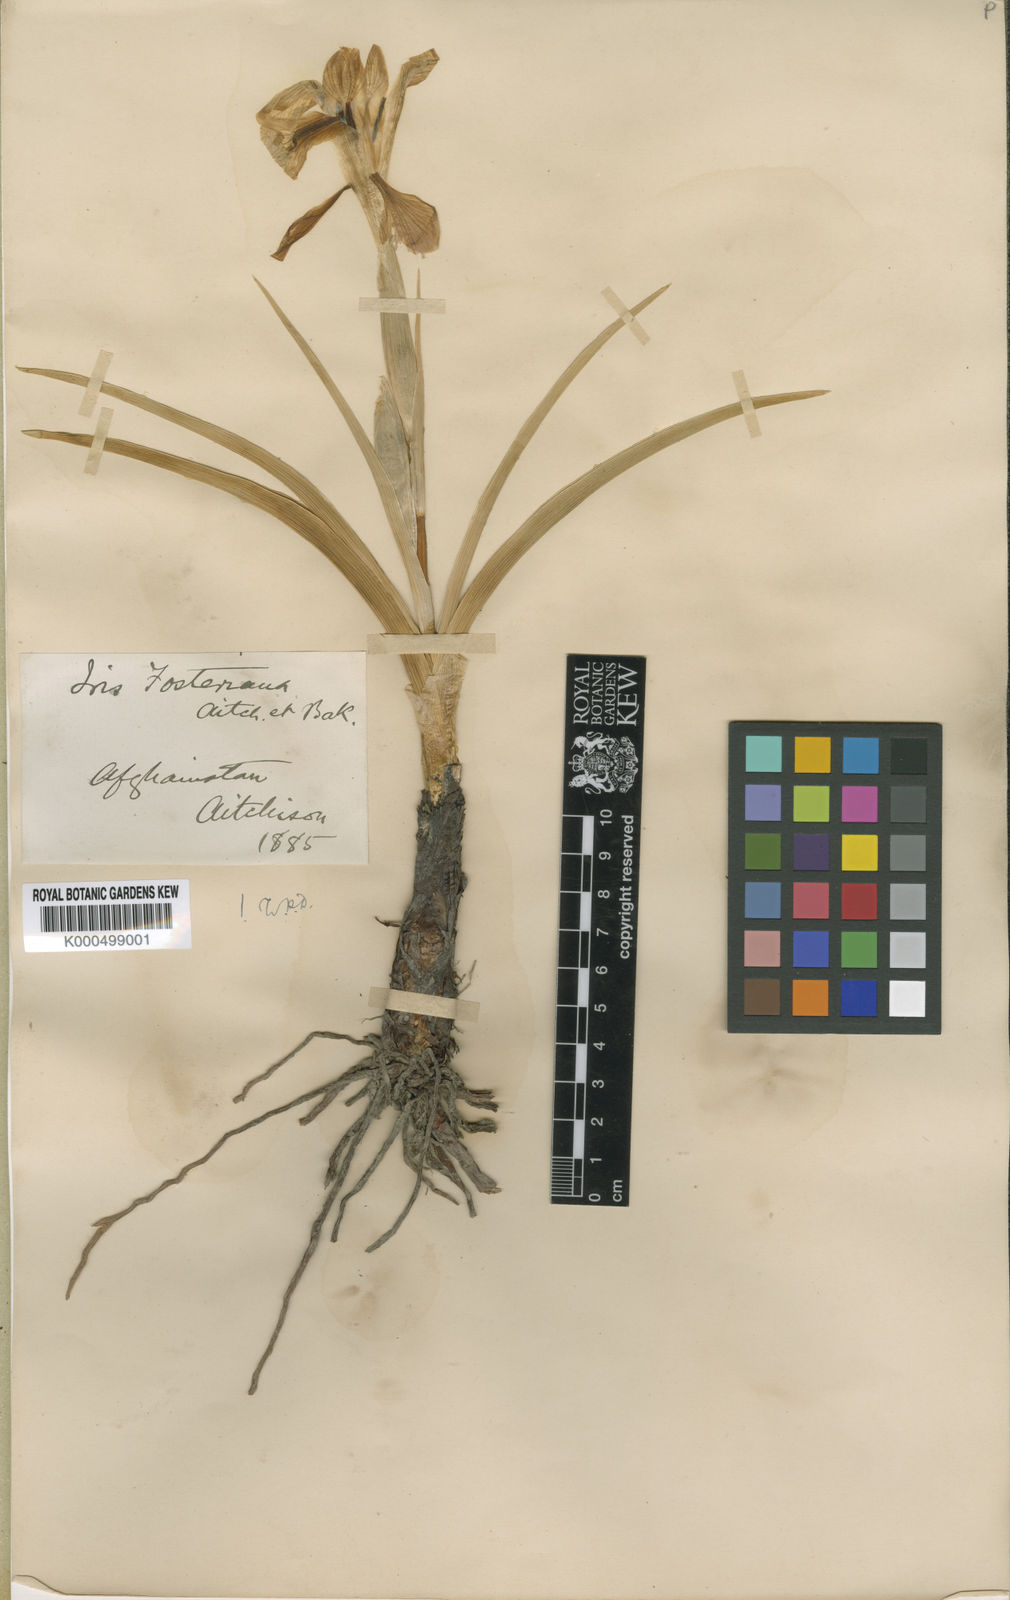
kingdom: Plantae
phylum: Tracheophyta
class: Liliopsida
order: Asparagales
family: Iridaceae
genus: Iris
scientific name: Iris rosenbachiana
